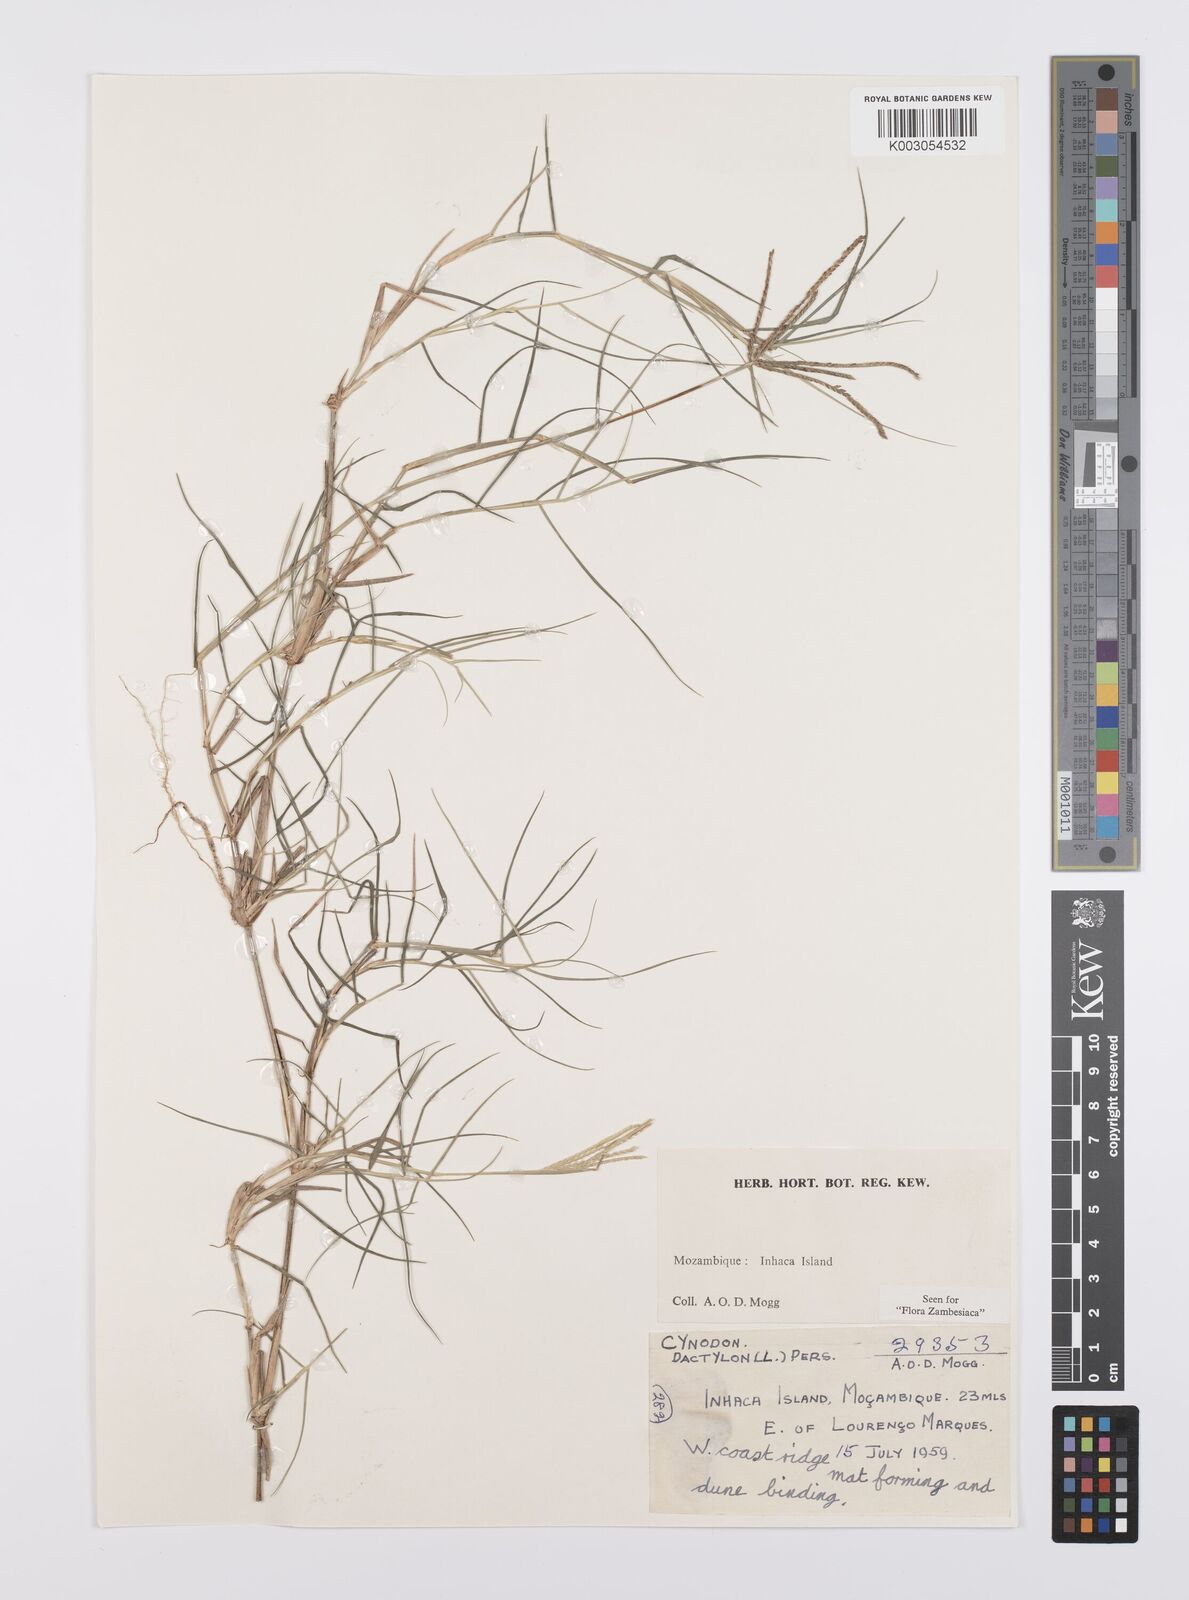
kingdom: Plantae
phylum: Tracheophyta
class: Liliopsida
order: Poales
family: Poaceae
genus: Cynodon
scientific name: Cynodon dactylon
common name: Bermuda grass
